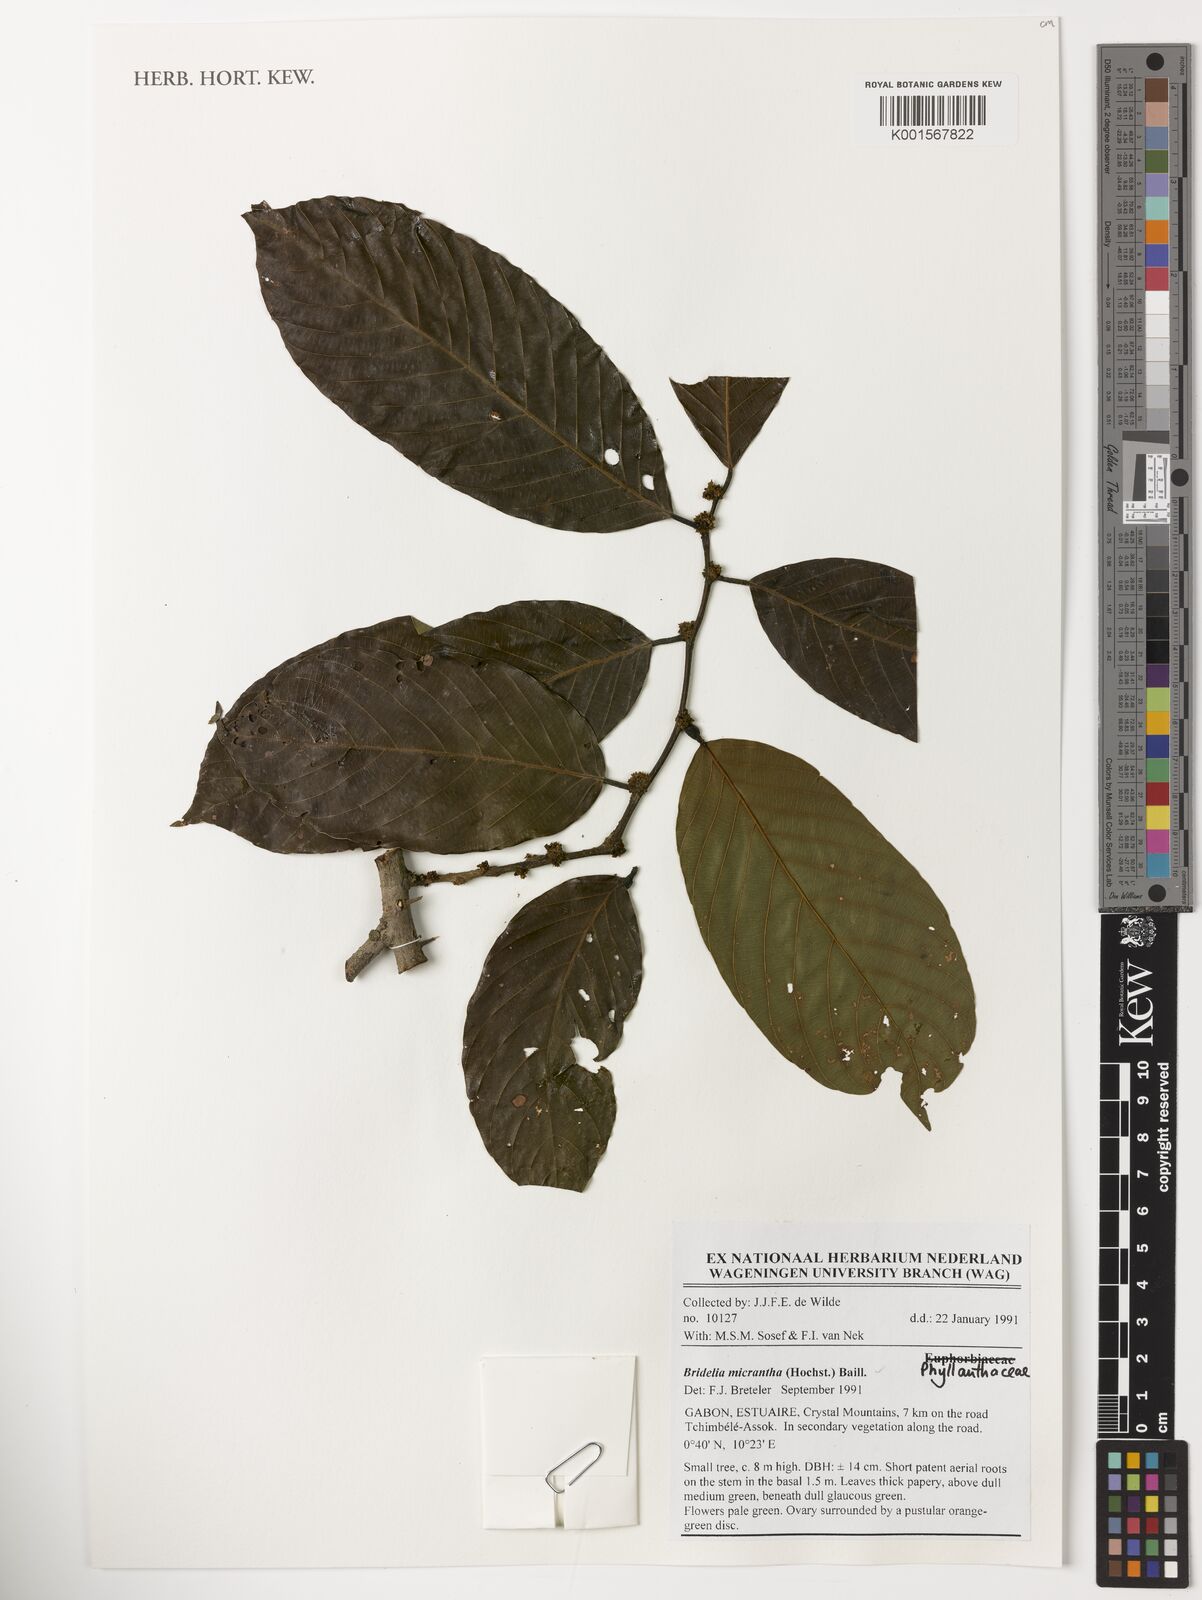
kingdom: Plantae
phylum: Tracheophyta
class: Magnoliopsida
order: Malpighiales
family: Phyllanthaceae
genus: Bridelia
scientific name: Bridelia micrantha
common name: Bridelia
